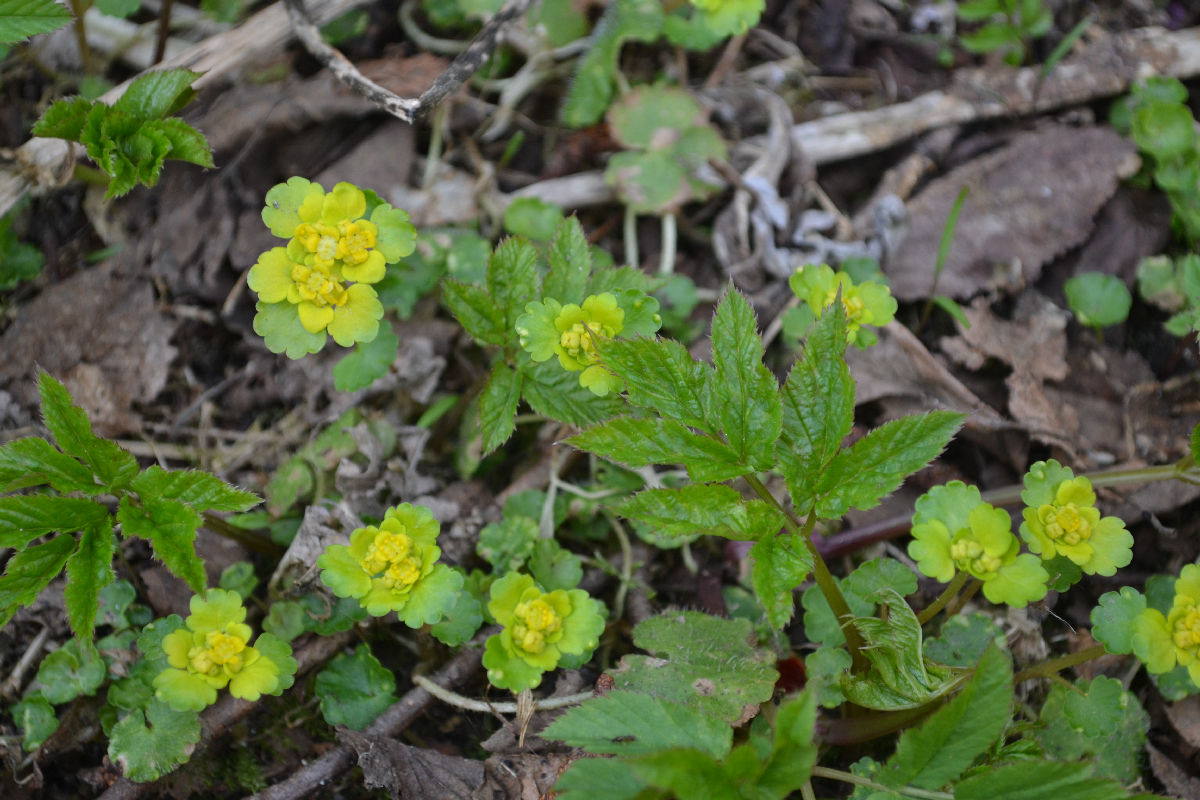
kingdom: Plantae
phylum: Tracheophyta
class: Magnoliopsida
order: Saxifragales
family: Saxifragaceae
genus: Chrysosplenium
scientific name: Chrysosplenium alternifolium
